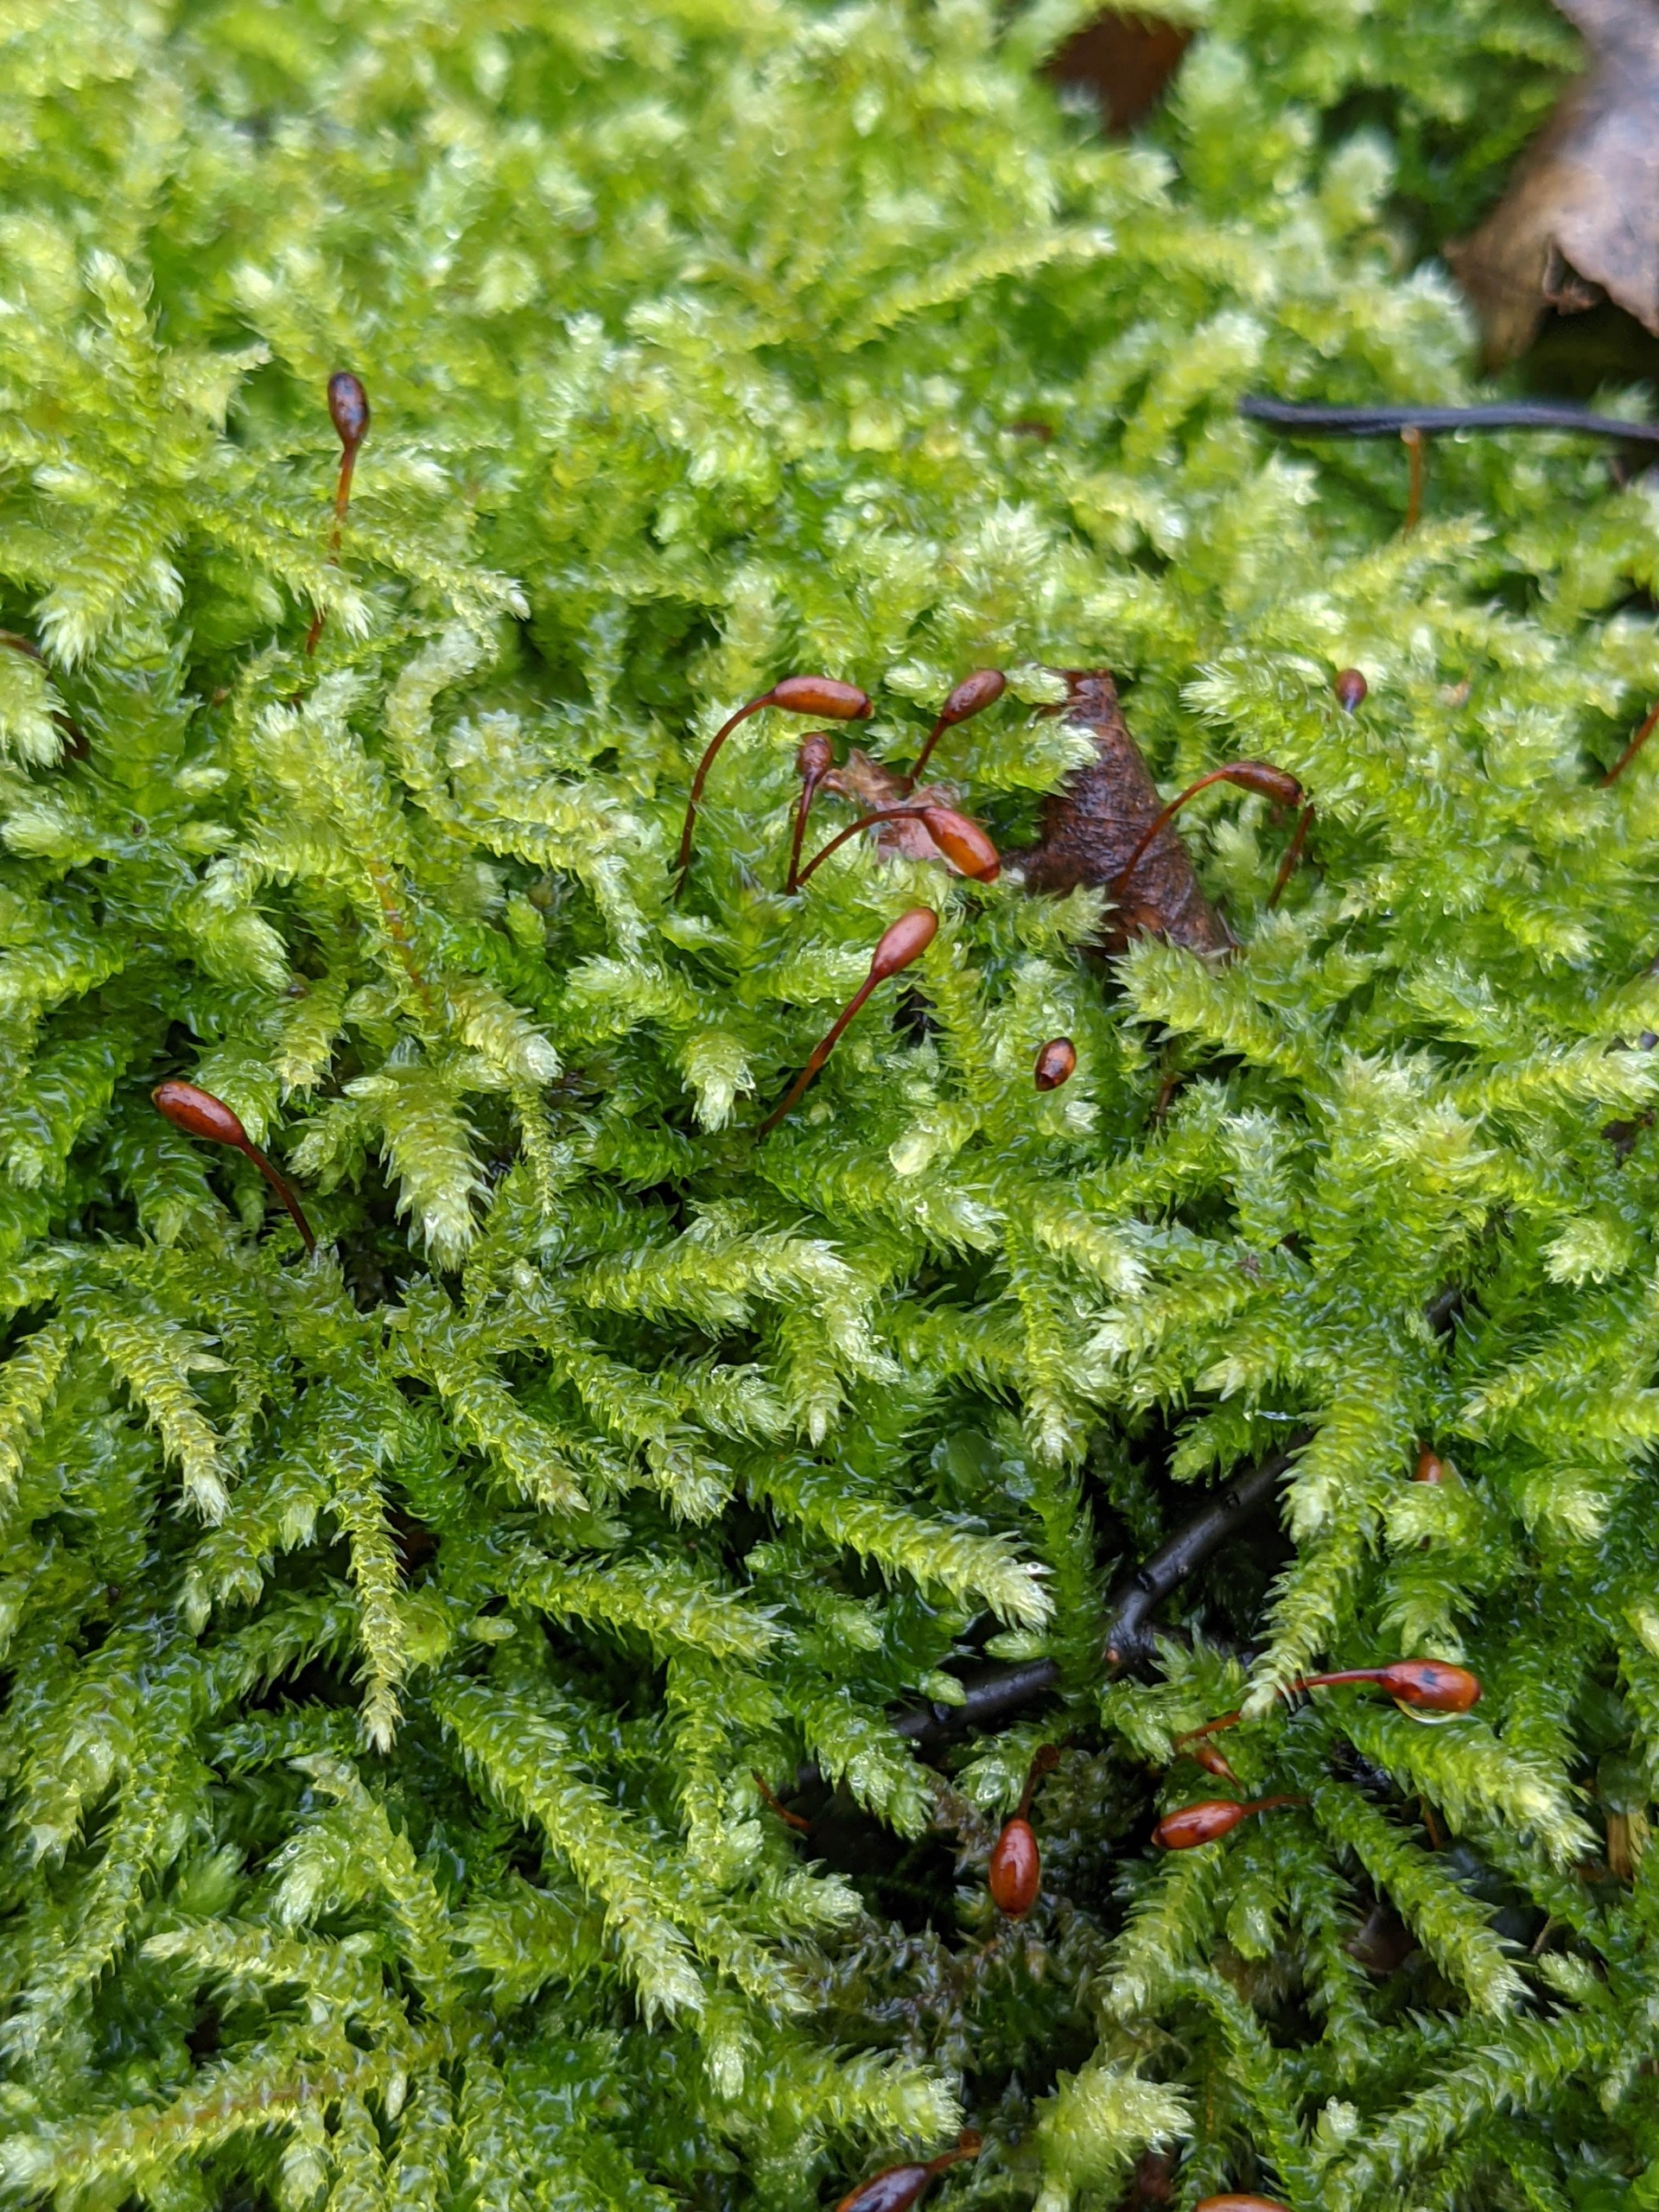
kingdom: Plantae
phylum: Bryophyta
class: Bryopsida
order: Hypnales
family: Brachytheciaceae
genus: Eurhynchium
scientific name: Eurhynchium striatum
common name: Stribet næbmos
